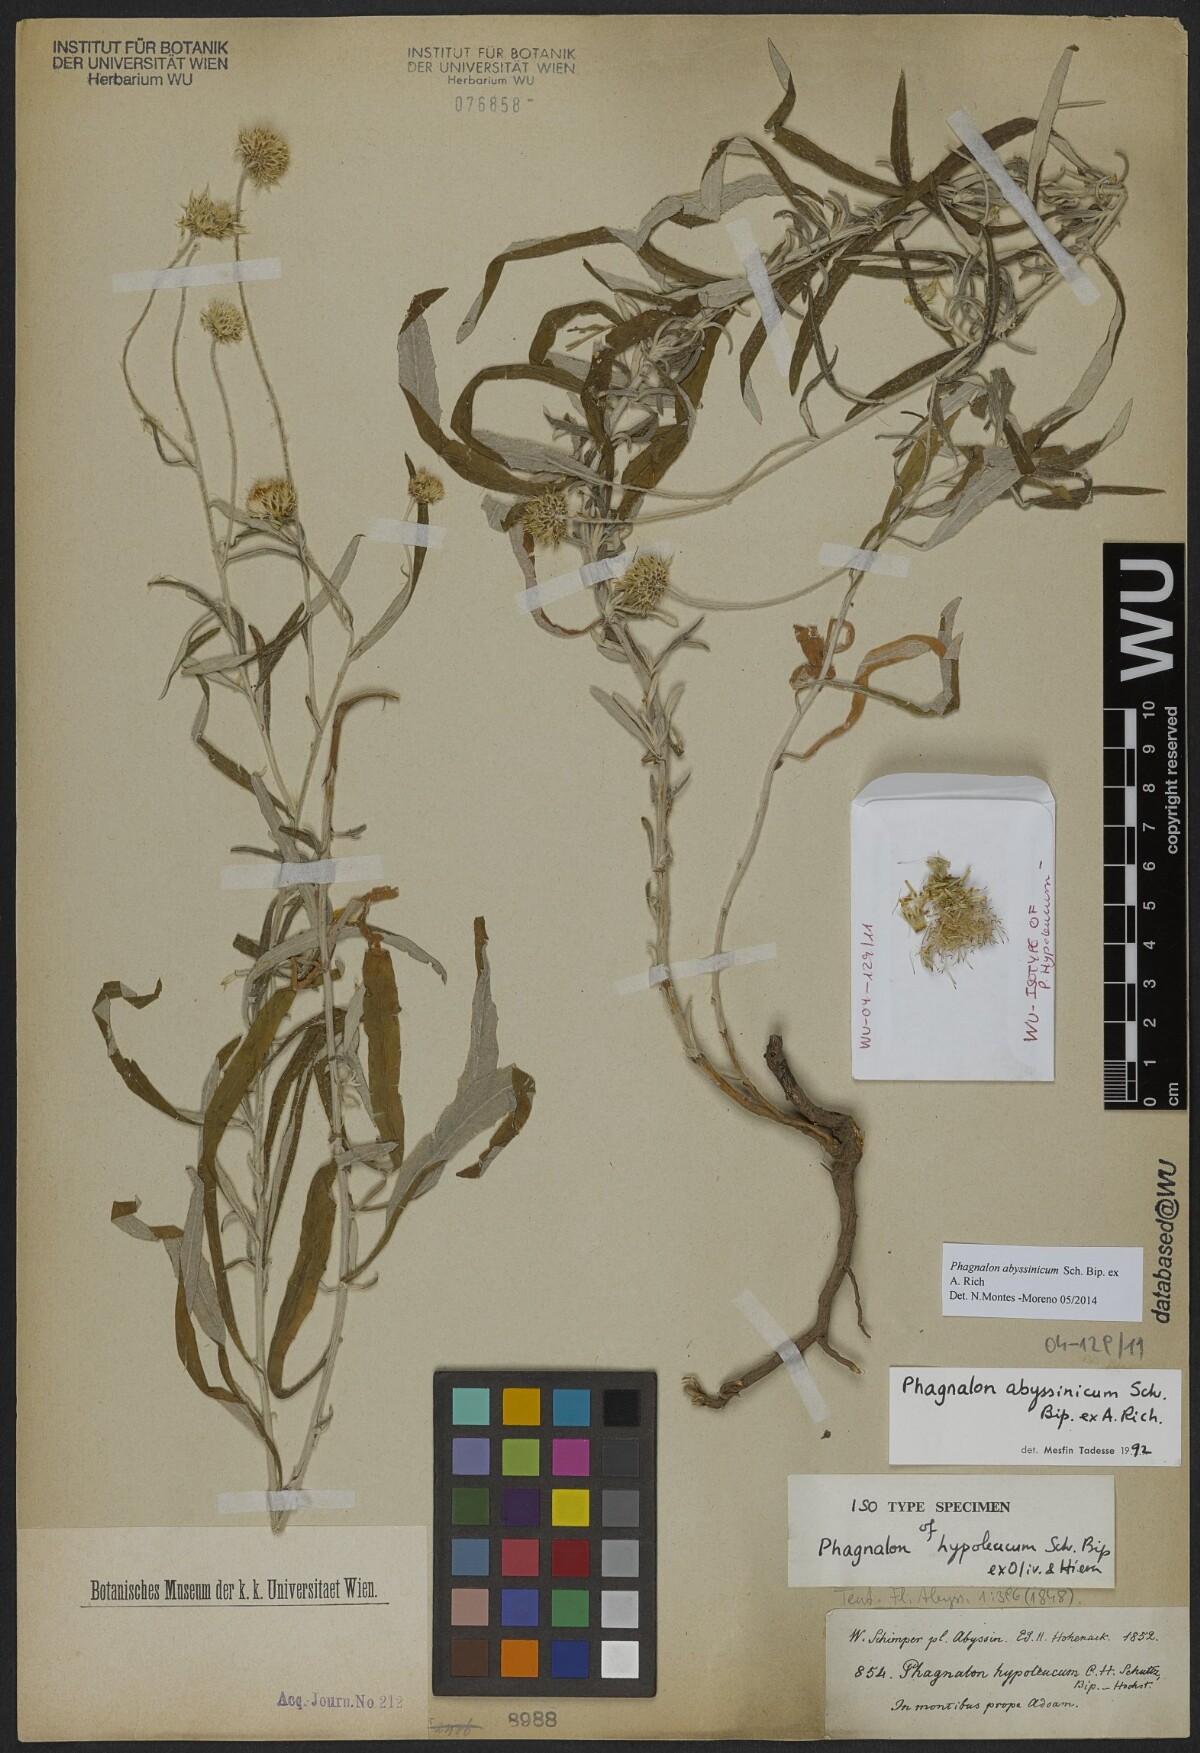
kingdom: Plantae
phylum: Tracheophyta
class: Magnoliopsida
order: Asterales
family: Asteraceae
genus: Phagnalon
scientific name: Phagnalon abyssinicum
